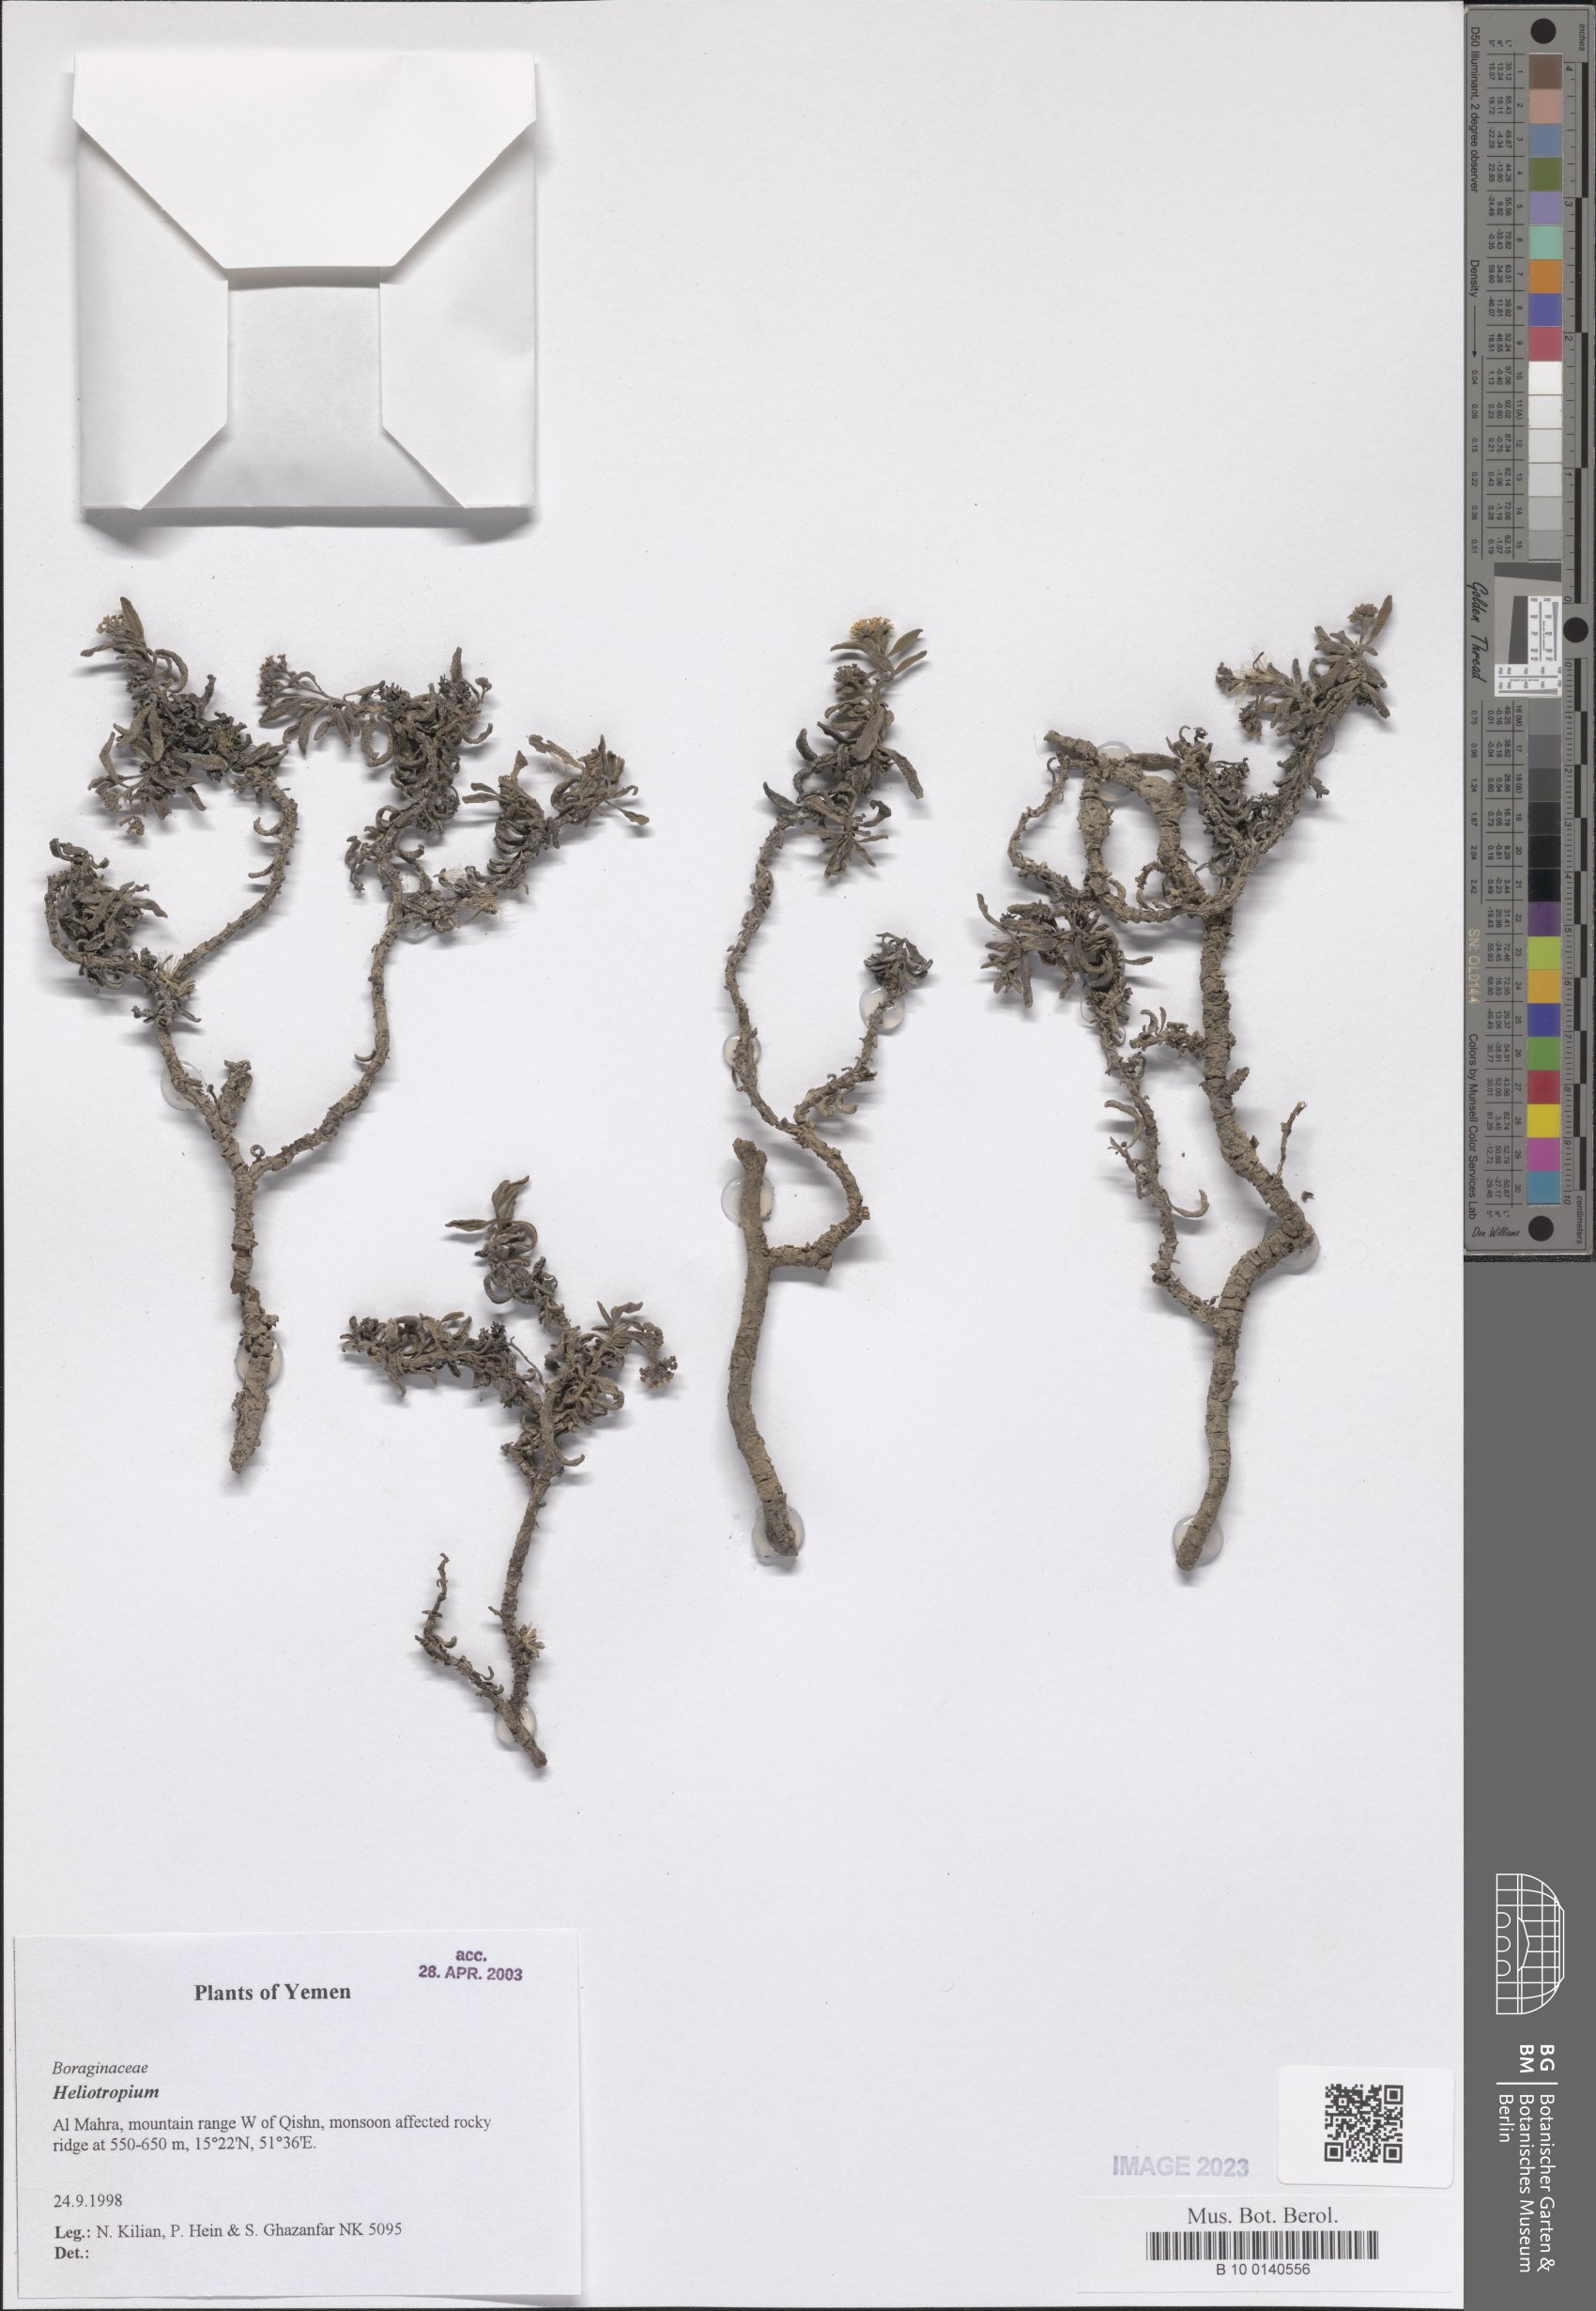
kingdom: Plantae
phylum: Tracheophyta
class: Magnoliopsida
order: Boraginales
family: Heliotropiaceae
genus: Heliotropium
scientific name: Heliotropium
